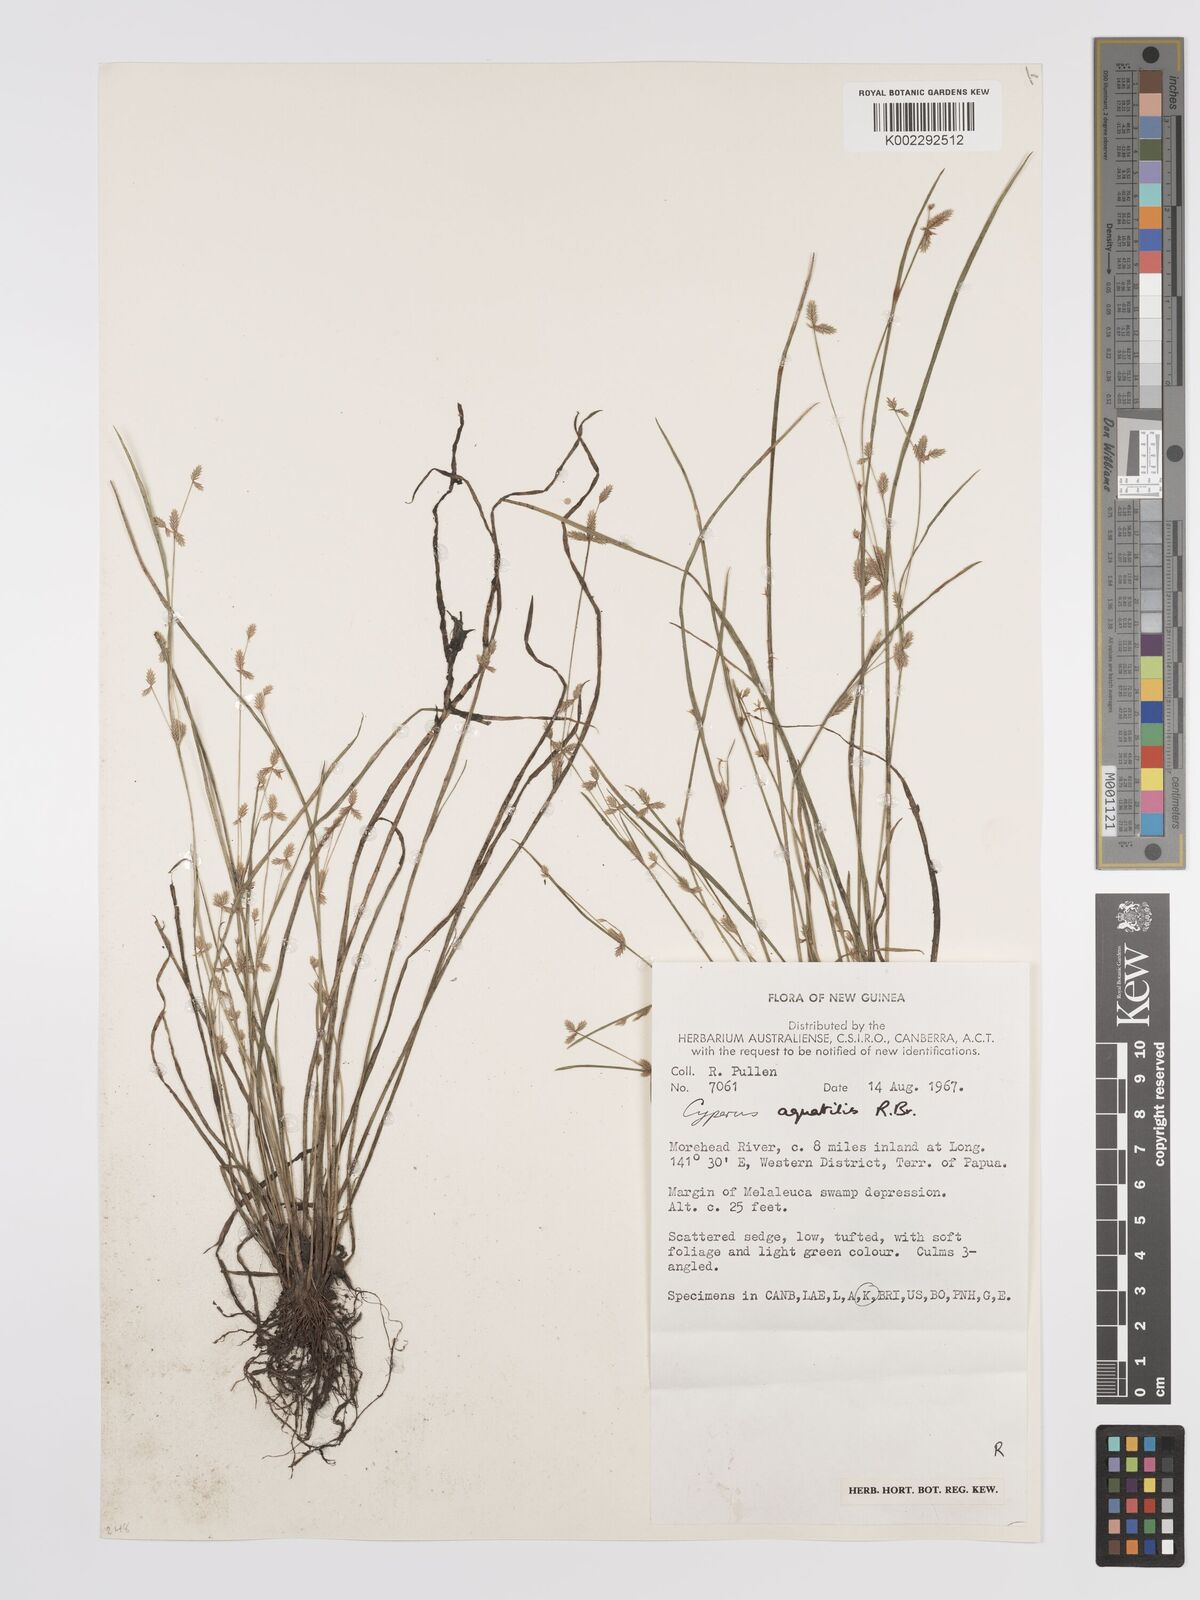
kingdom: Plantae
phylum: Tracheophyta
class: Liliopsida
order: Poales
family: Cyperaceae
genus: Cyperus
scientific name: Cyperus aquatilis
